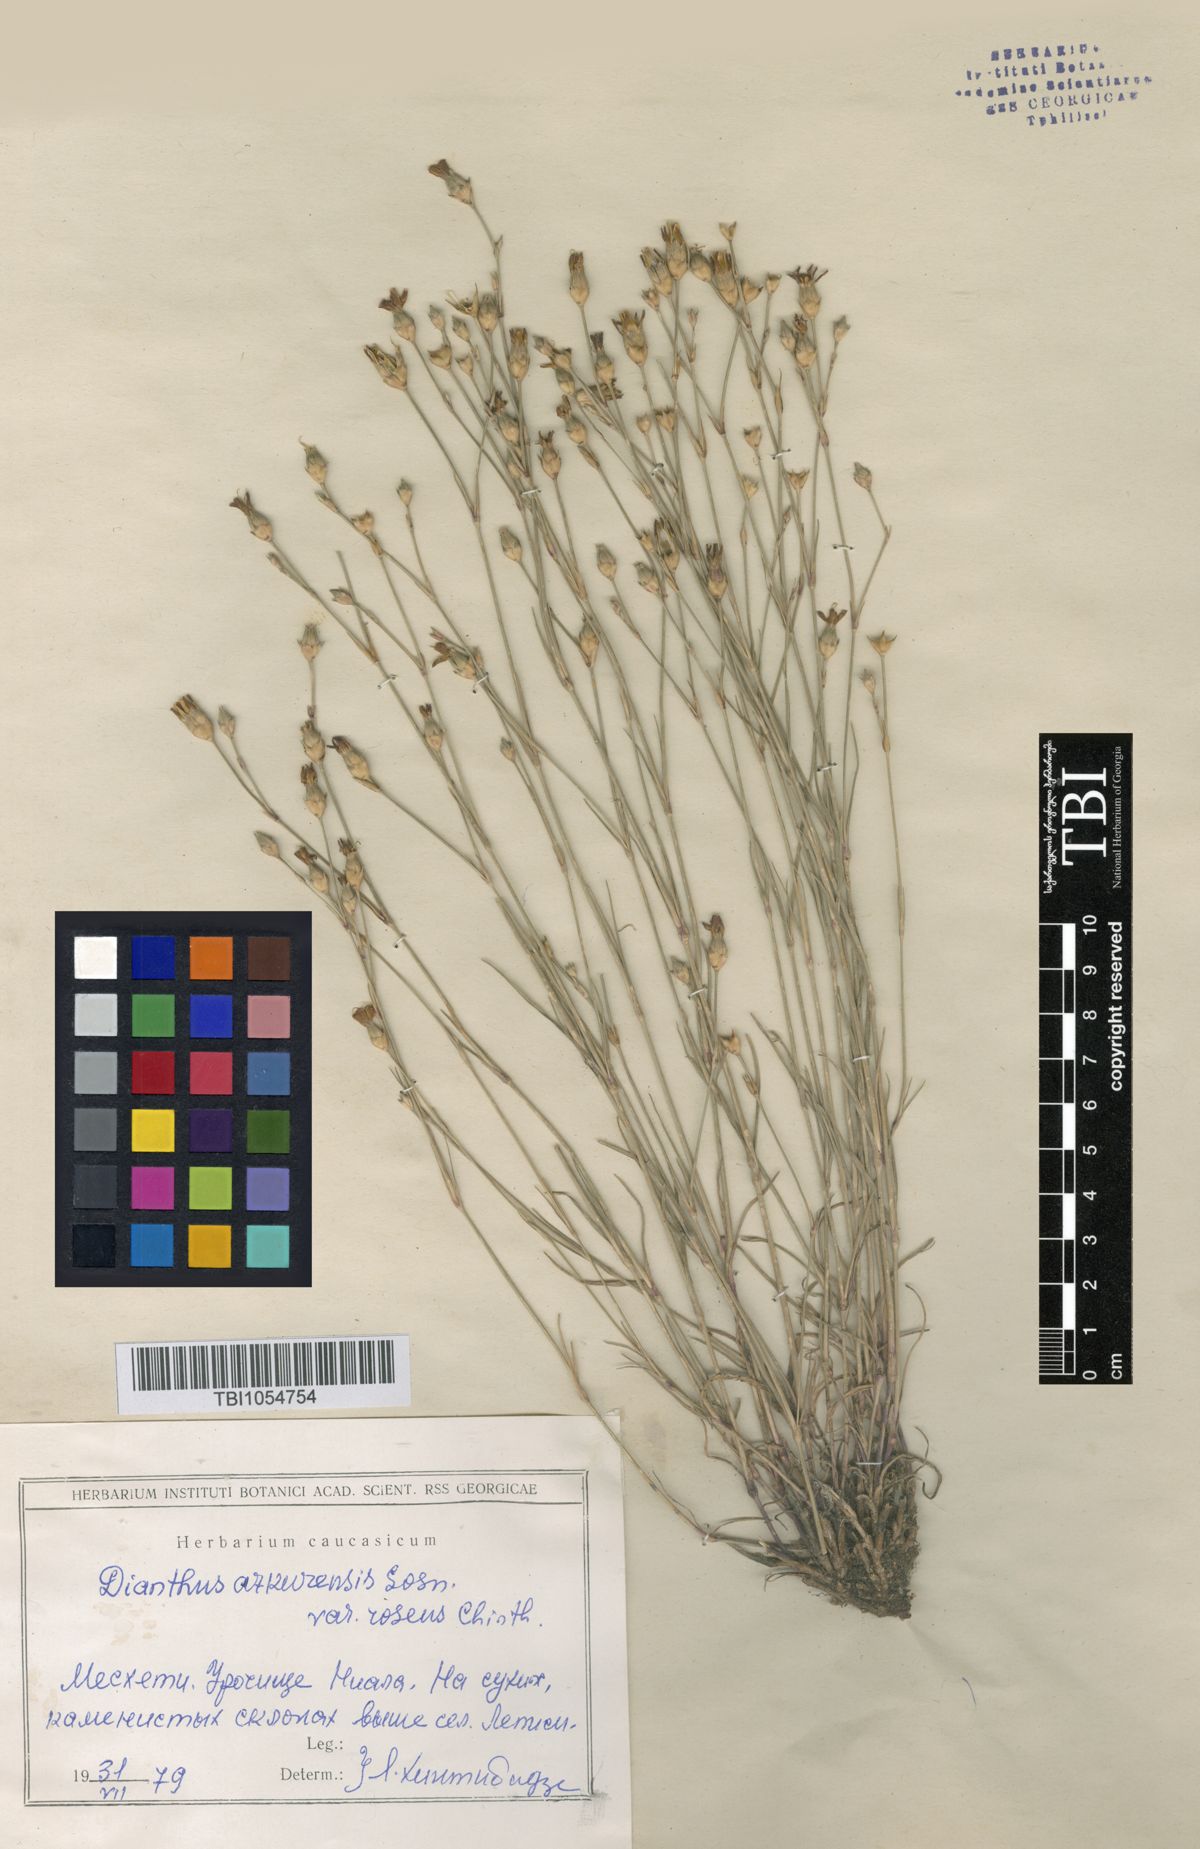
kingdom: Plantae
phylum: Tracheophyta
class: Magnoliopsida
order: Caryophyllales
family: Caryophyllaceae
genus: Dianthus
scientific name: Dianthus
